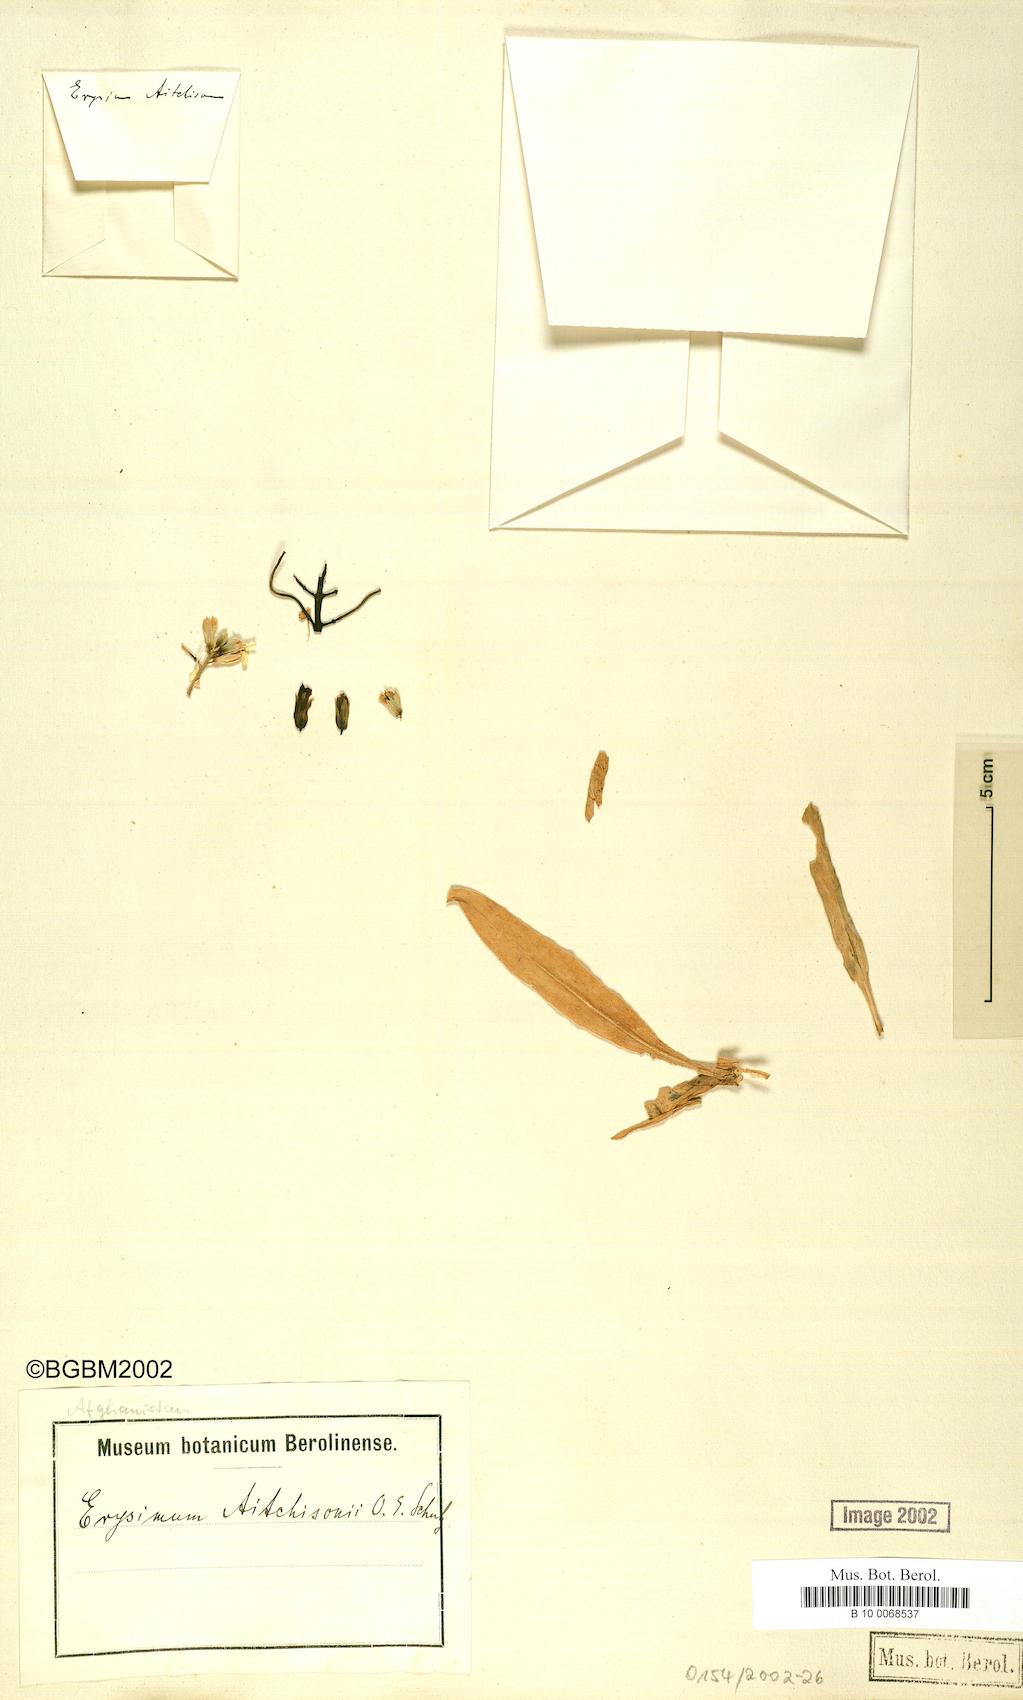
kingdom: Plantae
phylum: Tracheophyta
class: Magnoliopsida
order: Brassicales
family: Brassicaceae
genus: Erysimum
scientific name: Erysimum aitchisonii
